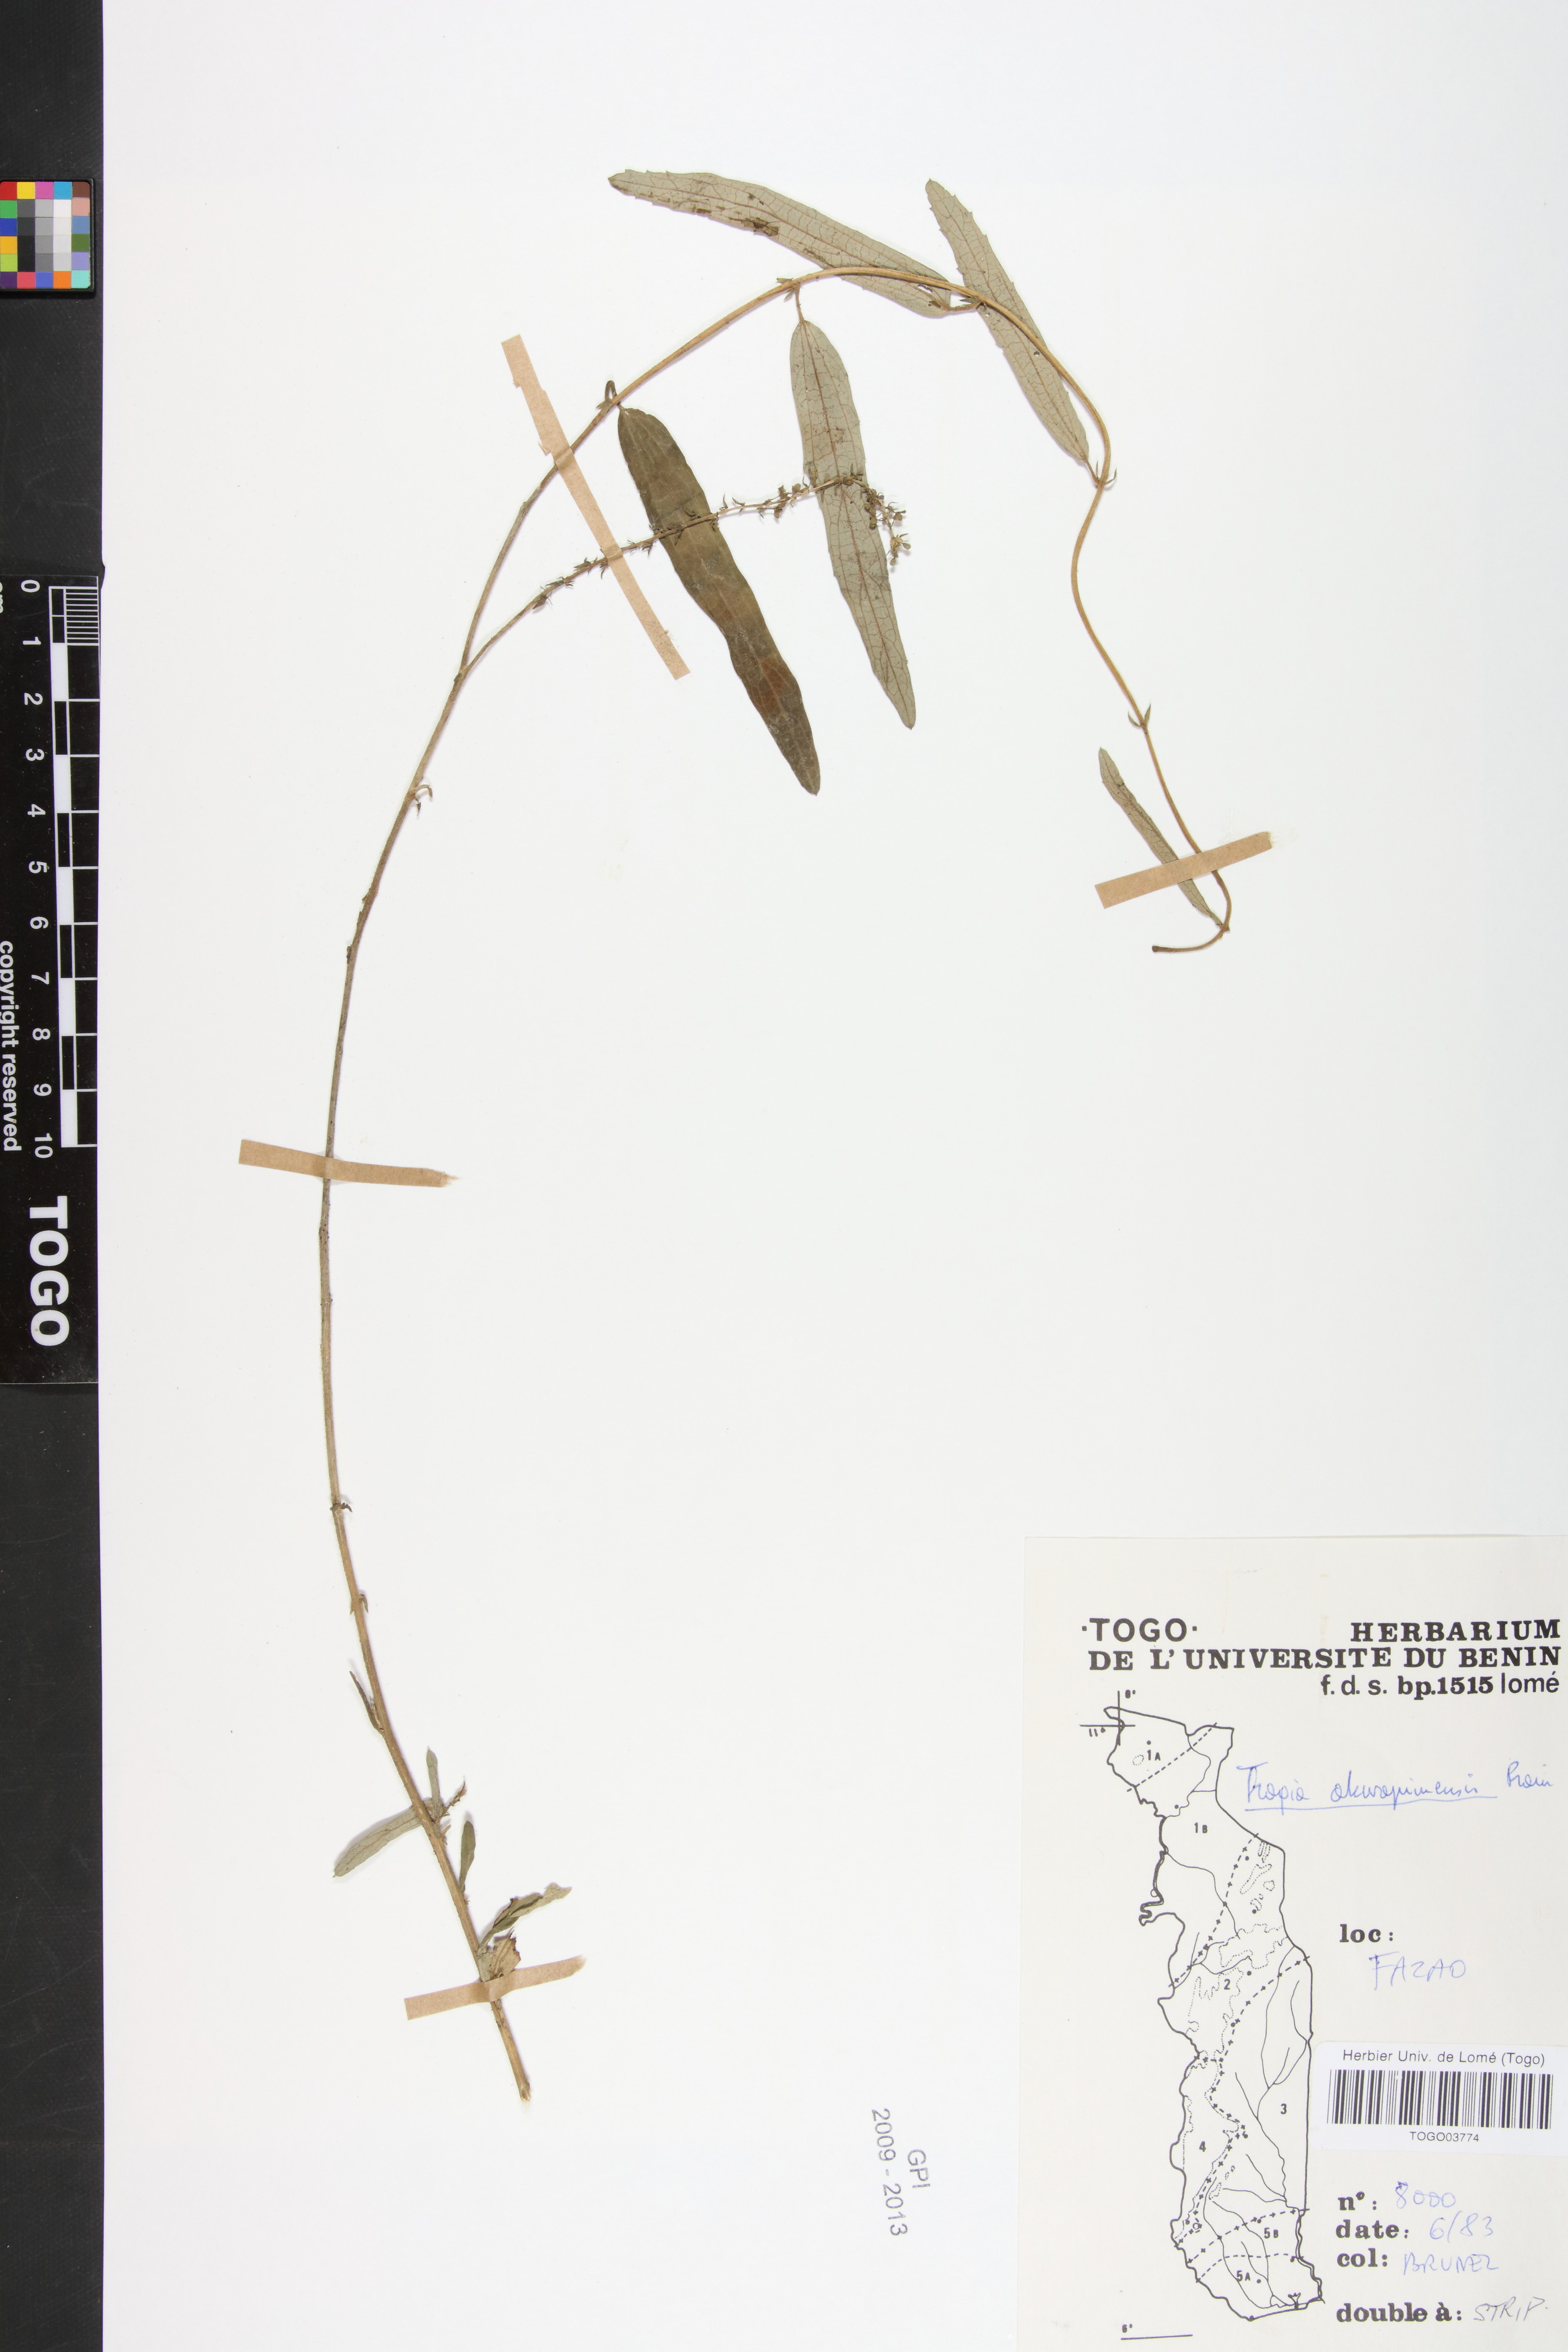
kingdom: Plantae
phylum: Tracheophyta
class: Magnoliopsida
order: Malpighiales
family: Euphorbiaceae
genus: Tragia
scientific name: Tragia wildemanii
